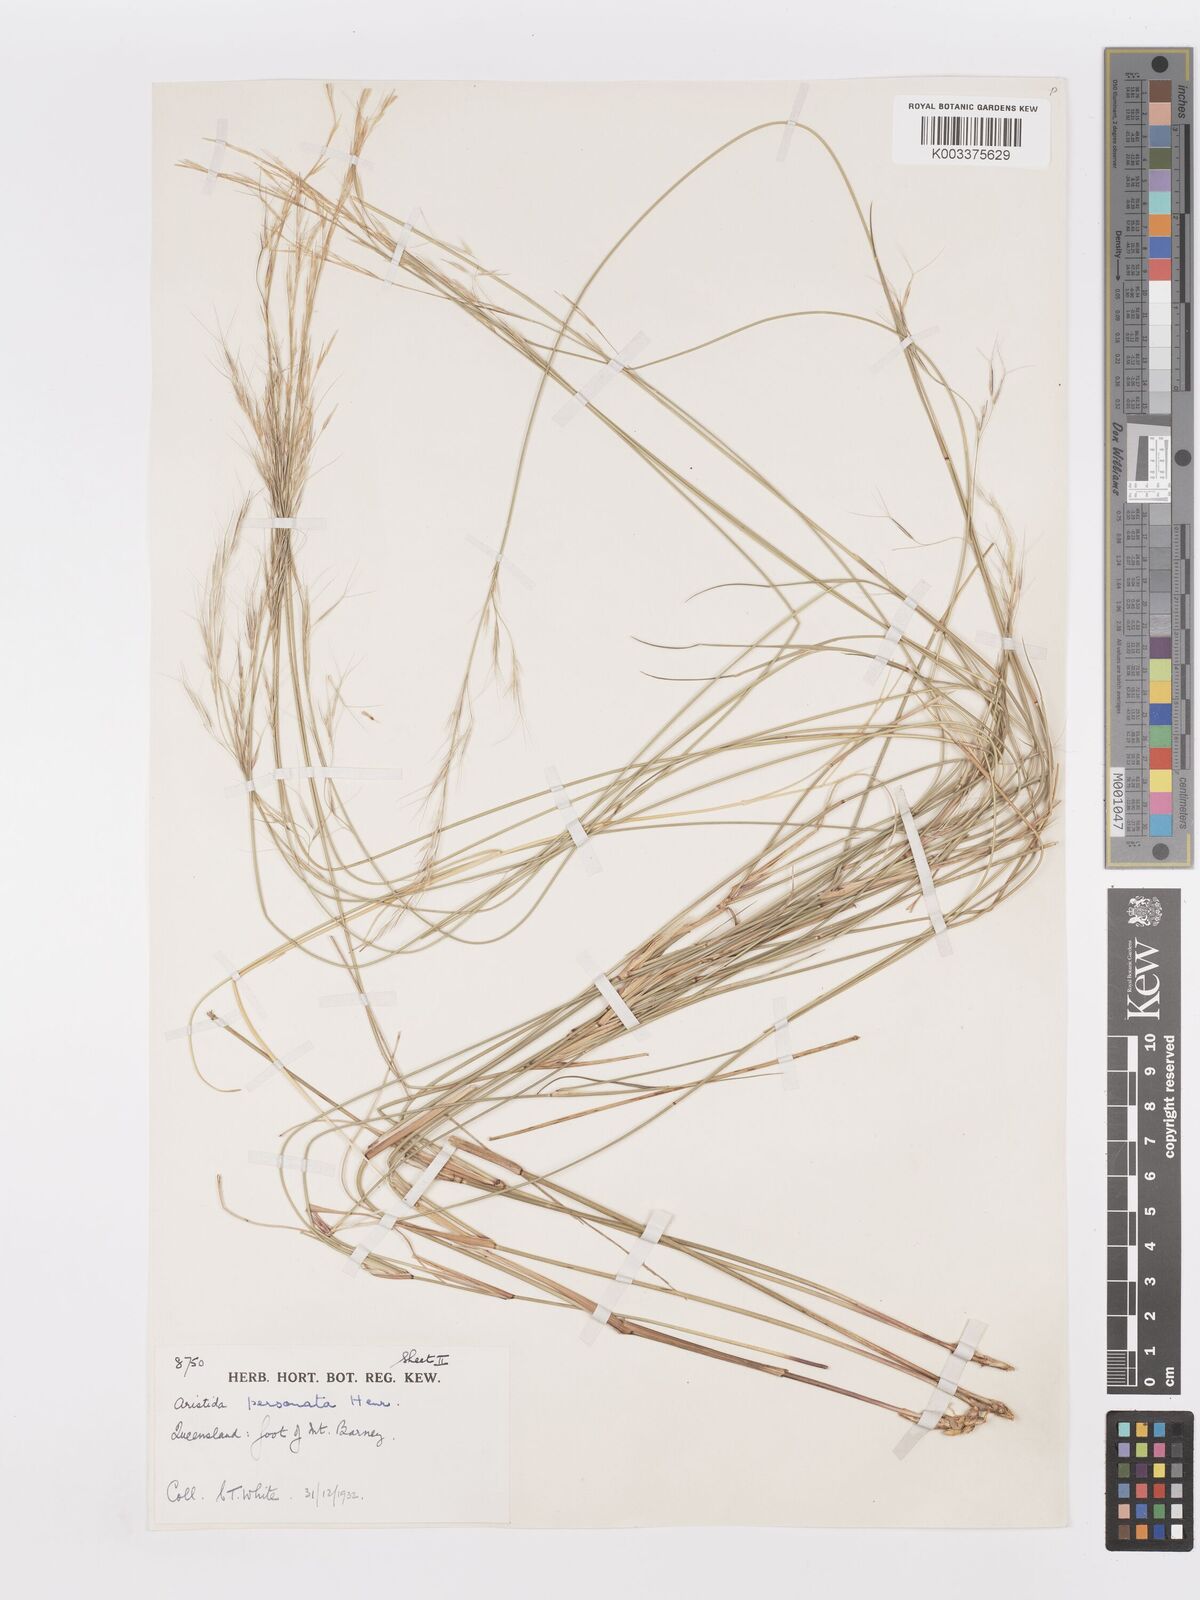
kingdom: Plantae
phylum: Tracheophyta
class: Liliopsida
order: Poales
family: Poaceae
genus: Aristida
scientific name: Aristida personata
